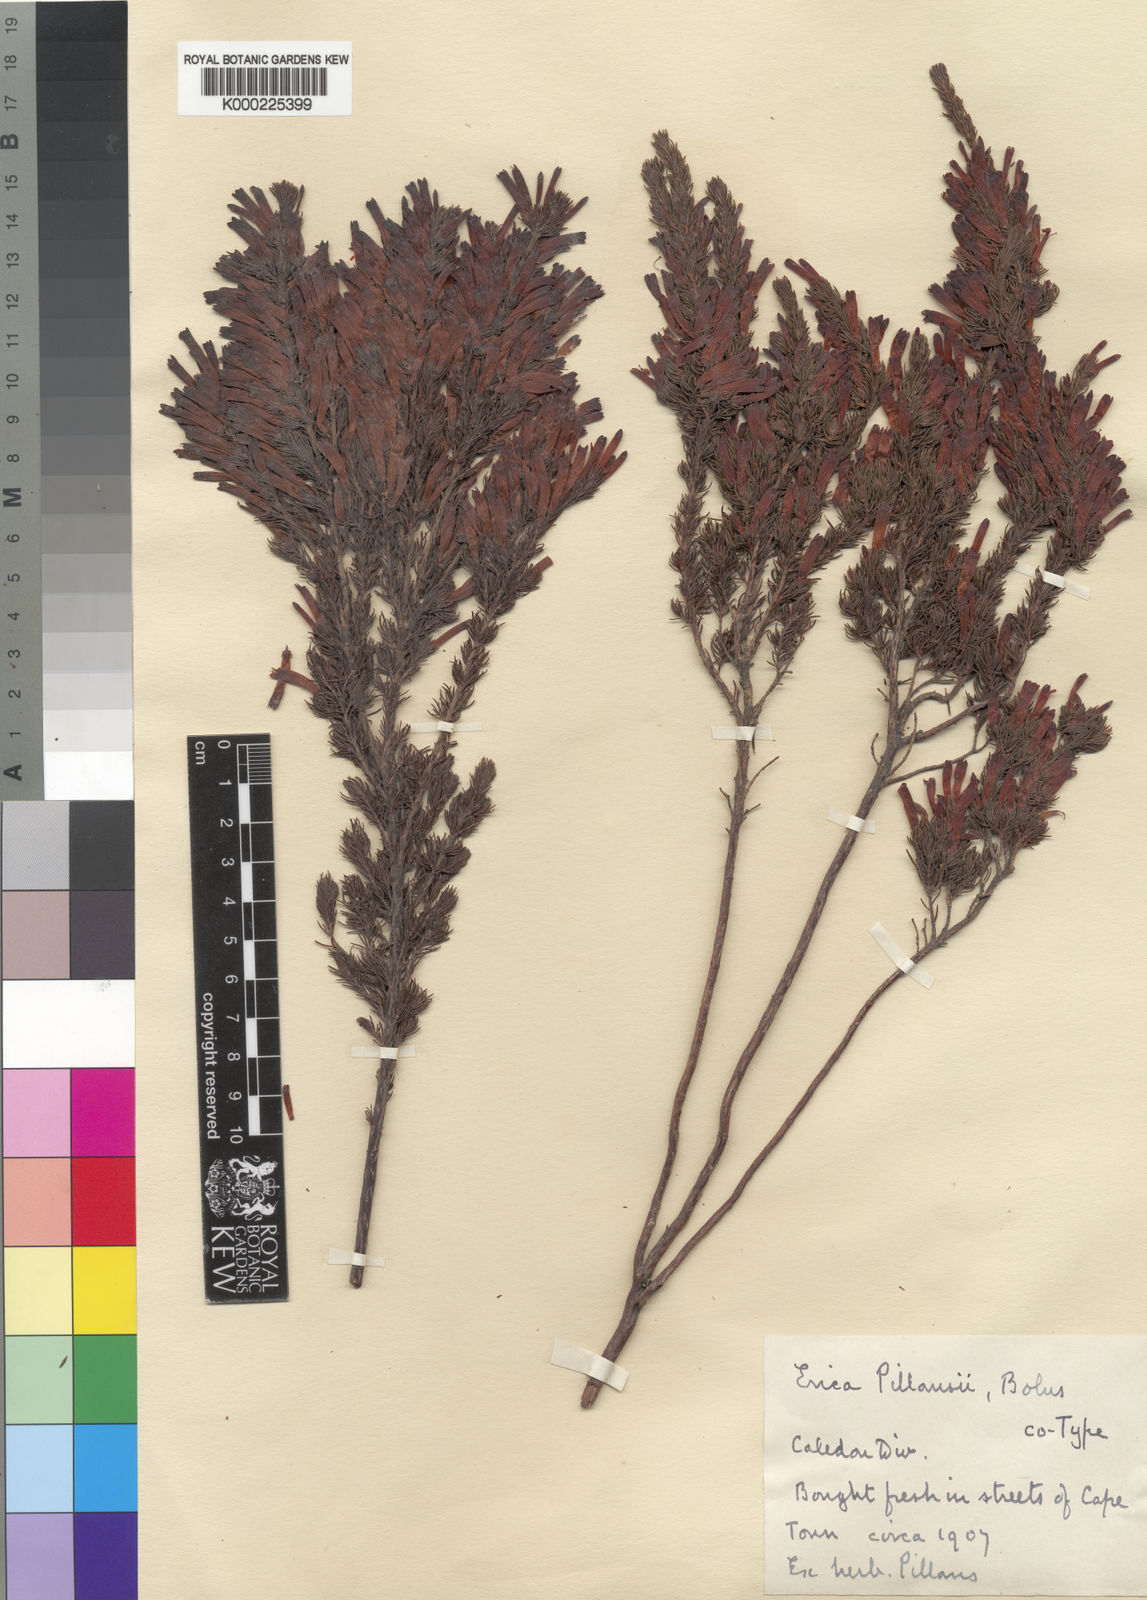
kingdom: Plantae
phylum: Tracheophyta
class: Magnoliopsida
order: Ericales
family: Ericaceae
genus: Erica
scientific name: Erica pillansii
